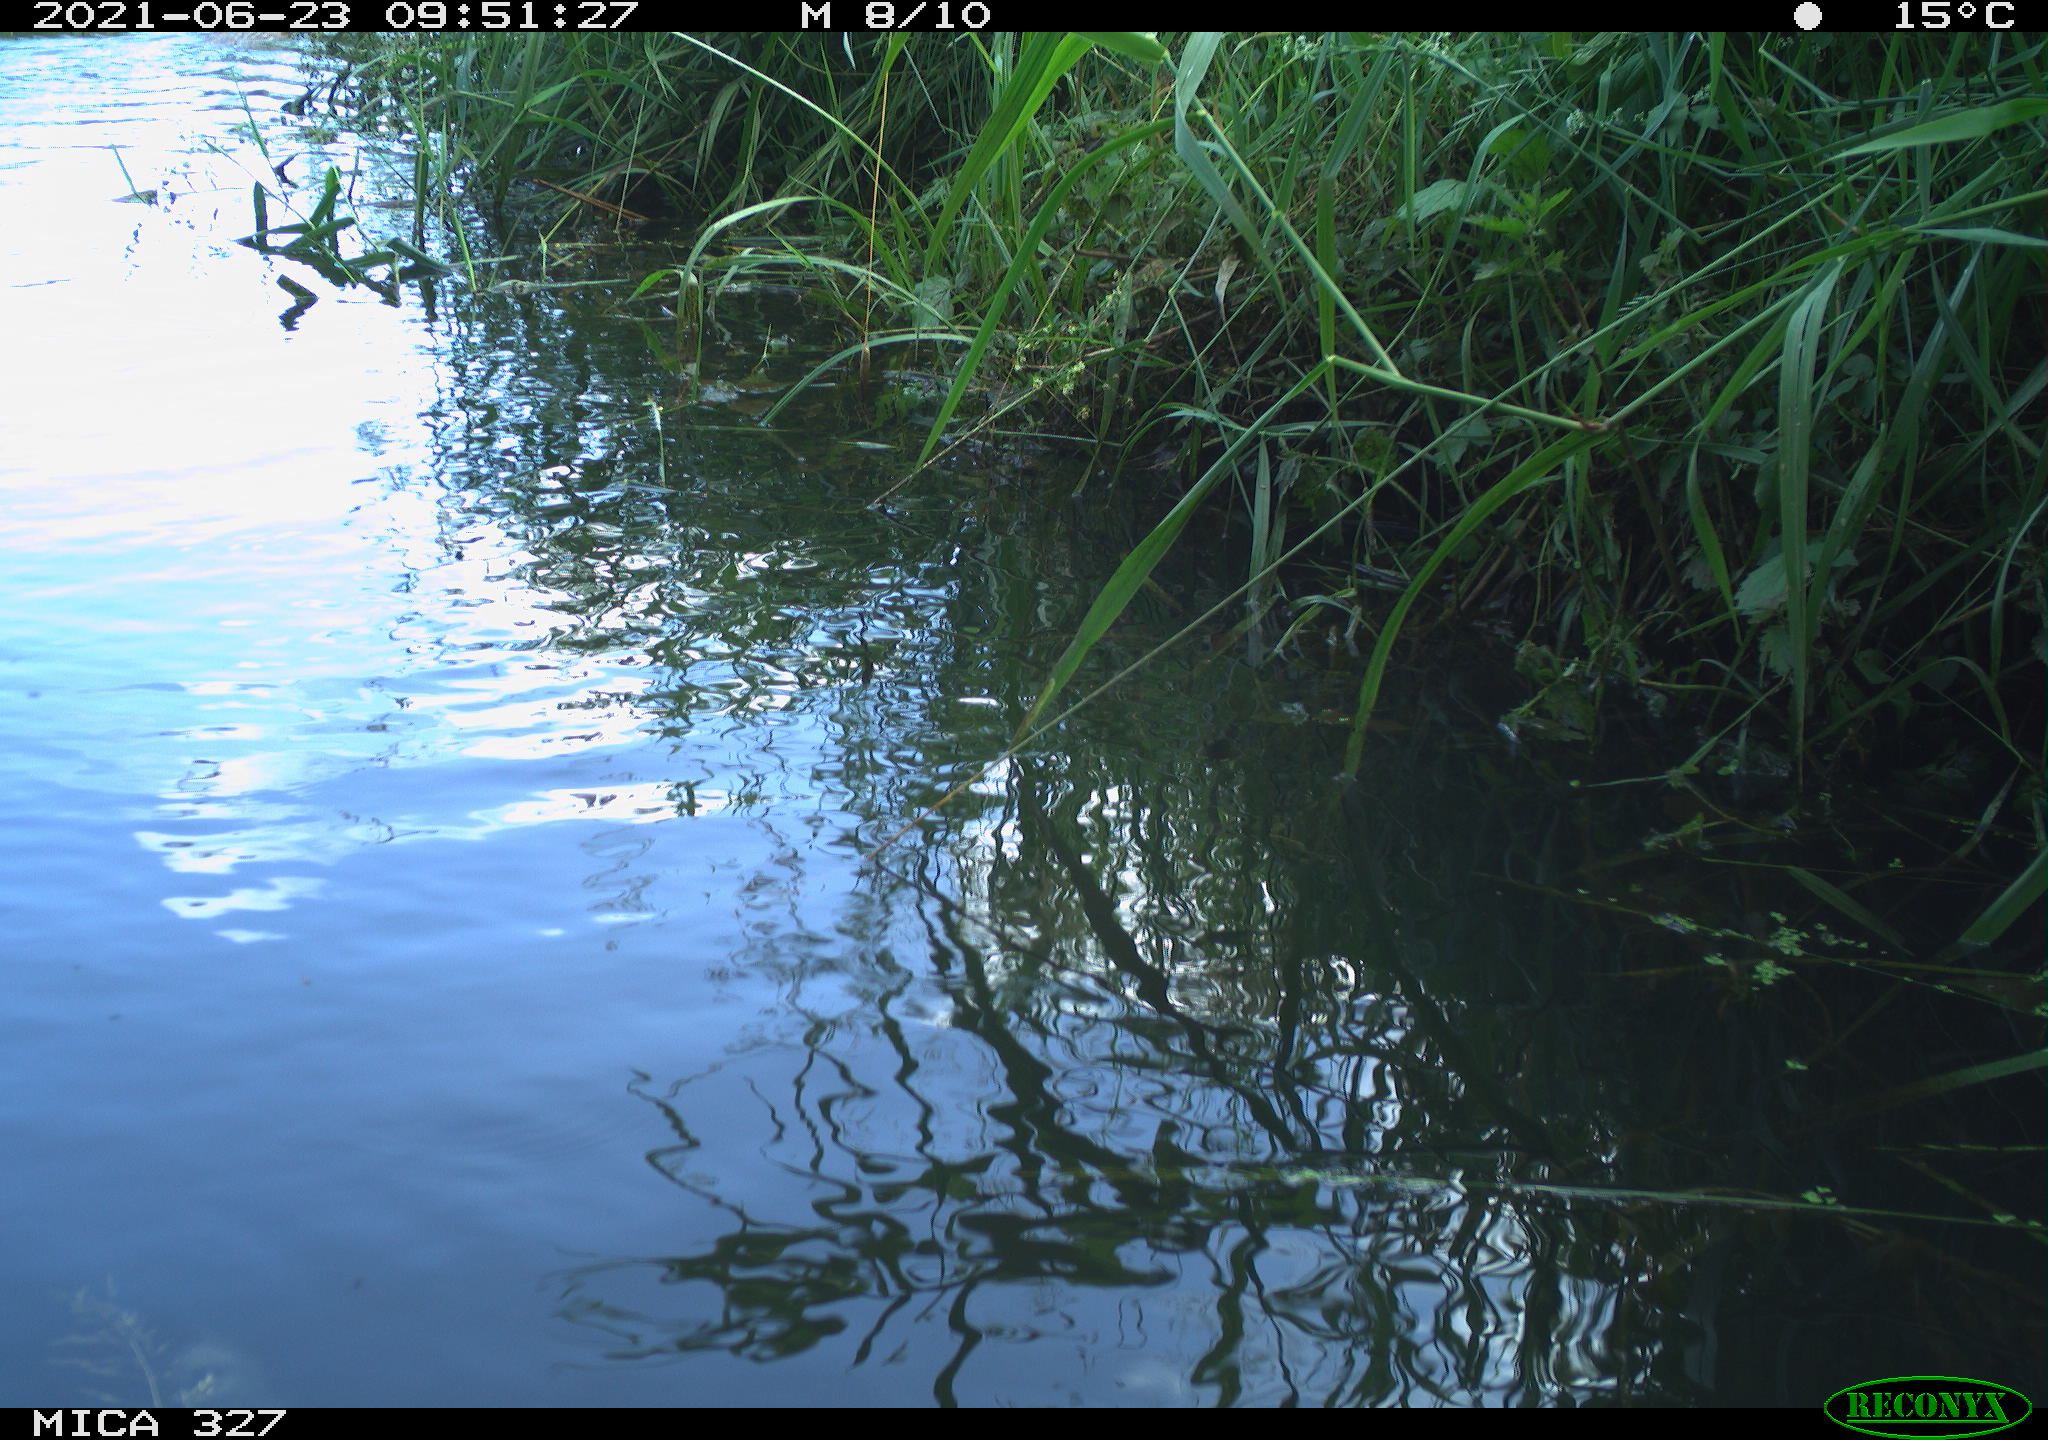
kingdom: Animalia
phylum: Chordata
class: Mammalia
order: Rodentia
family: Cricetidae
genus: Ondatra
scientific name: Ondatra zibethicus
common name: Muskrat
